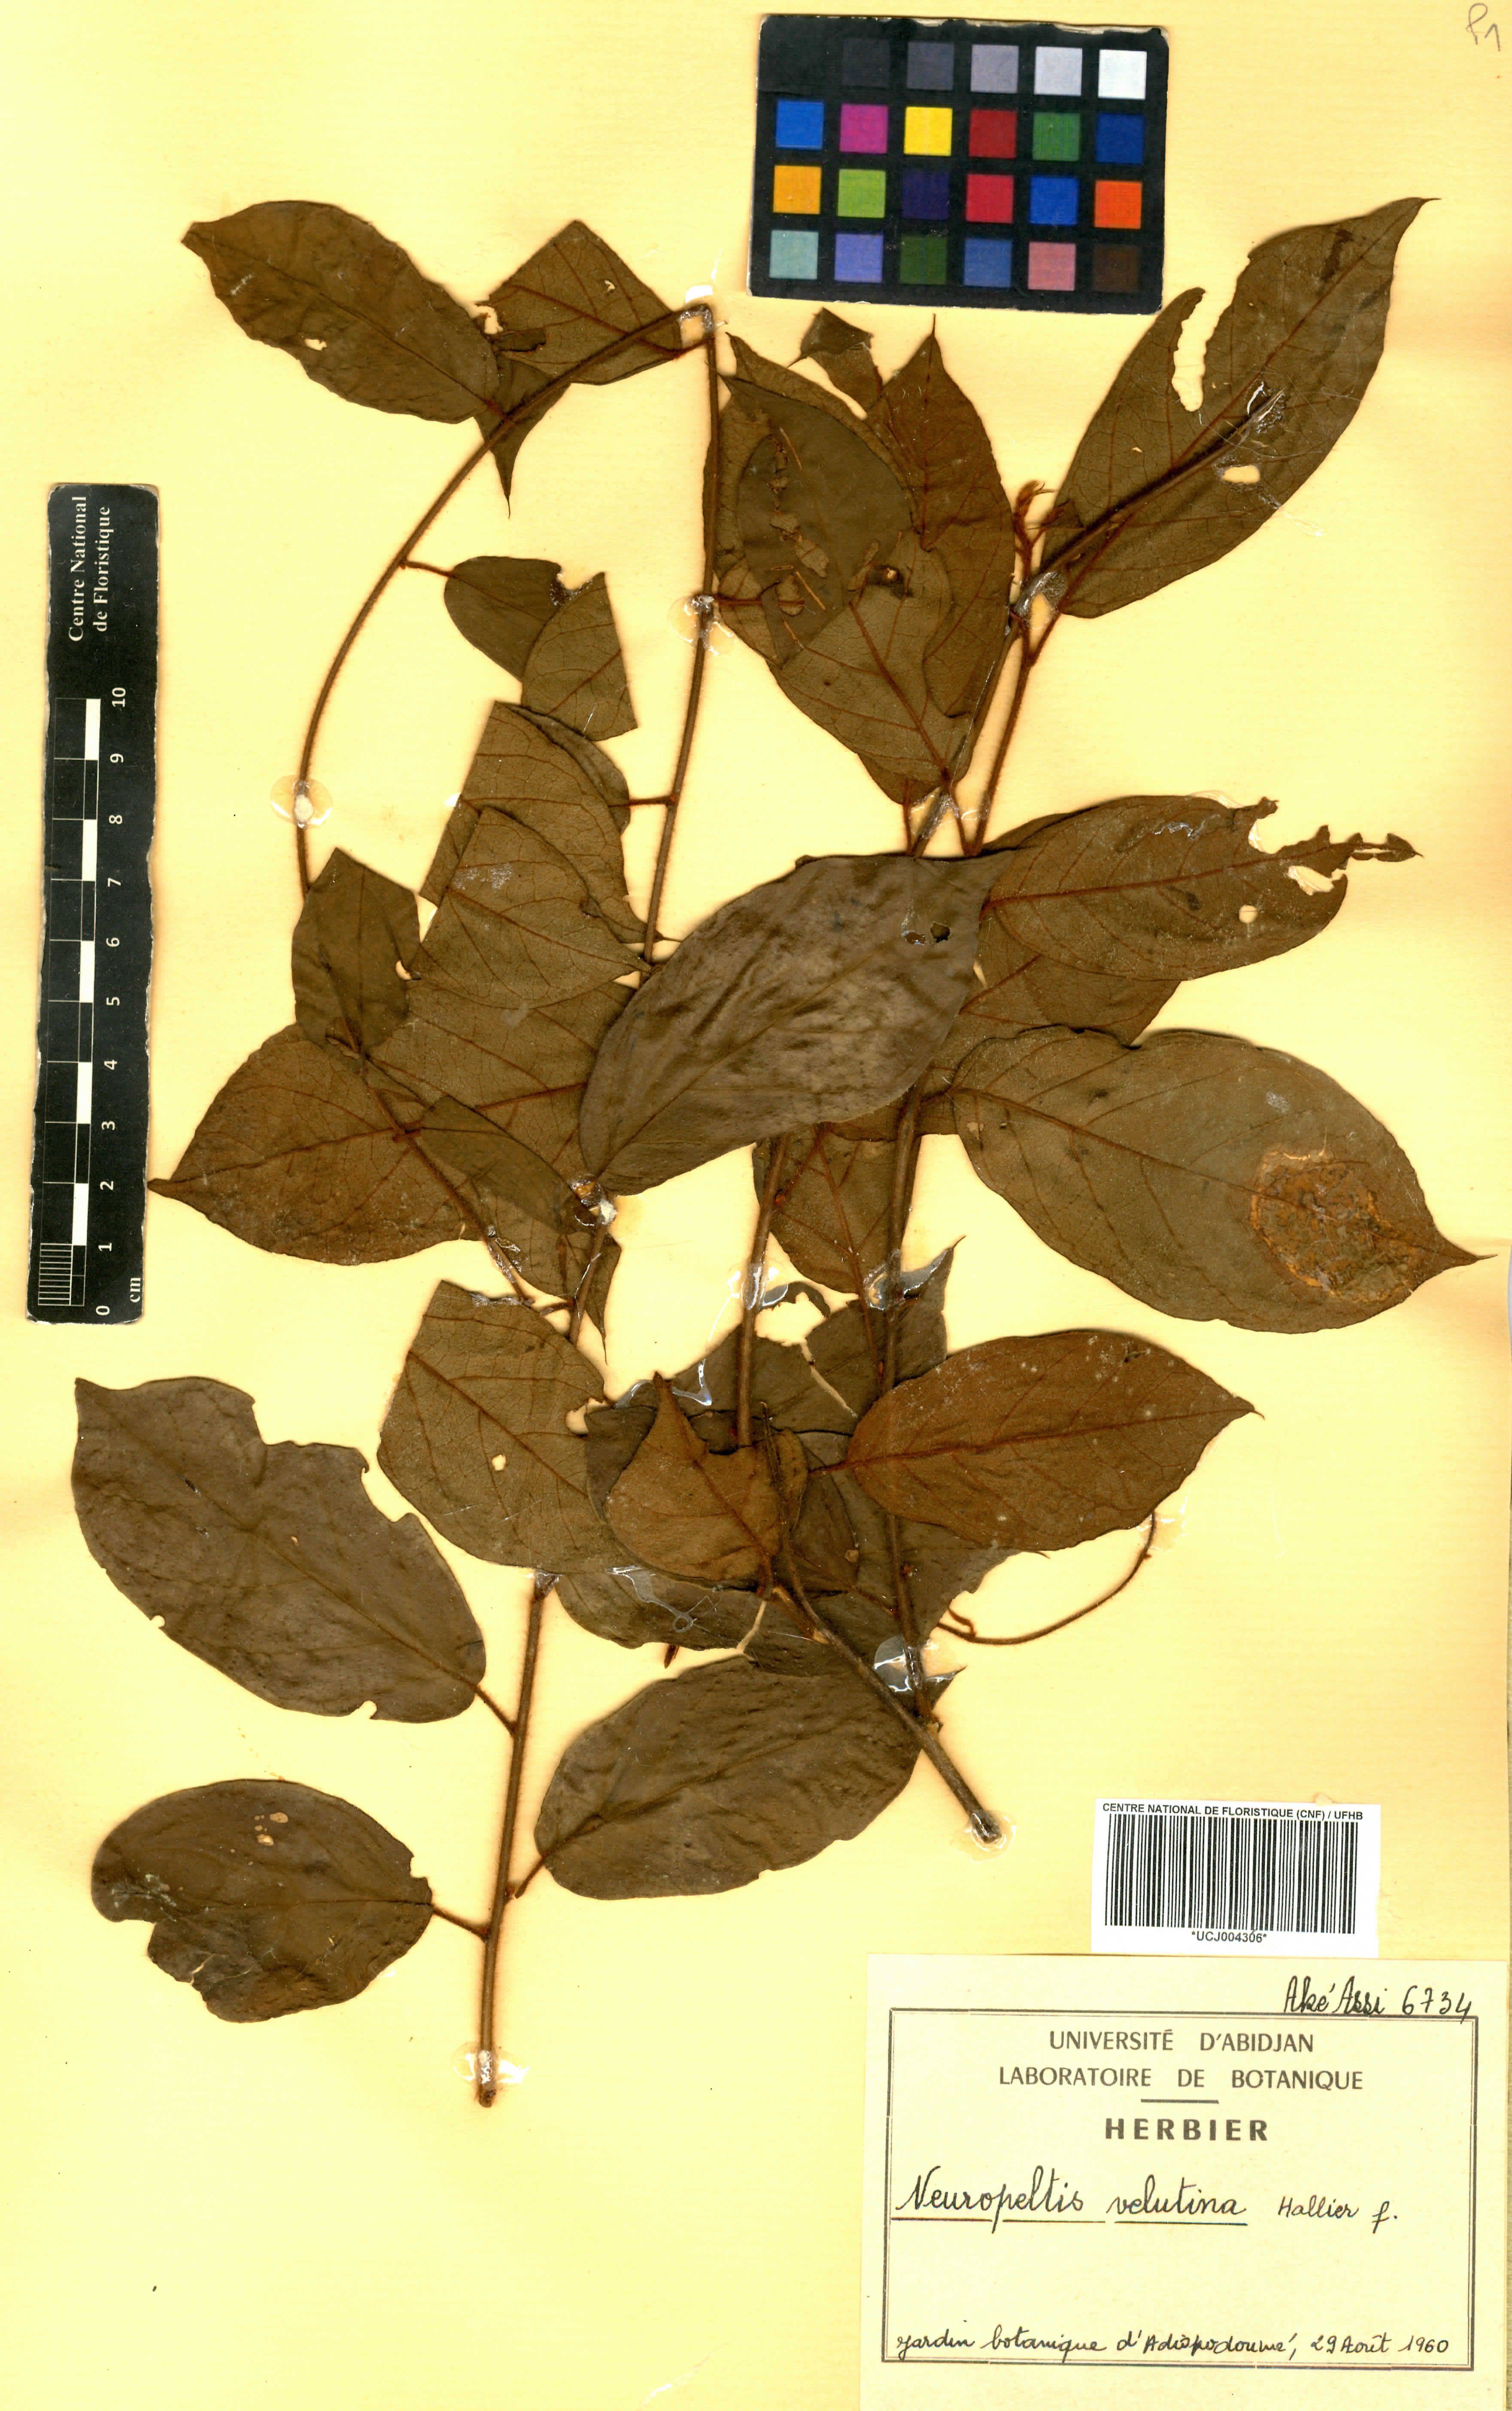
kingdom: Plantae
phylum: Tracheophyta
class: Magnoliopsida
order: Solanales
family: Convolvulaceae
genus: Neuropeltis
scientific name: Neuropeltis velutina
